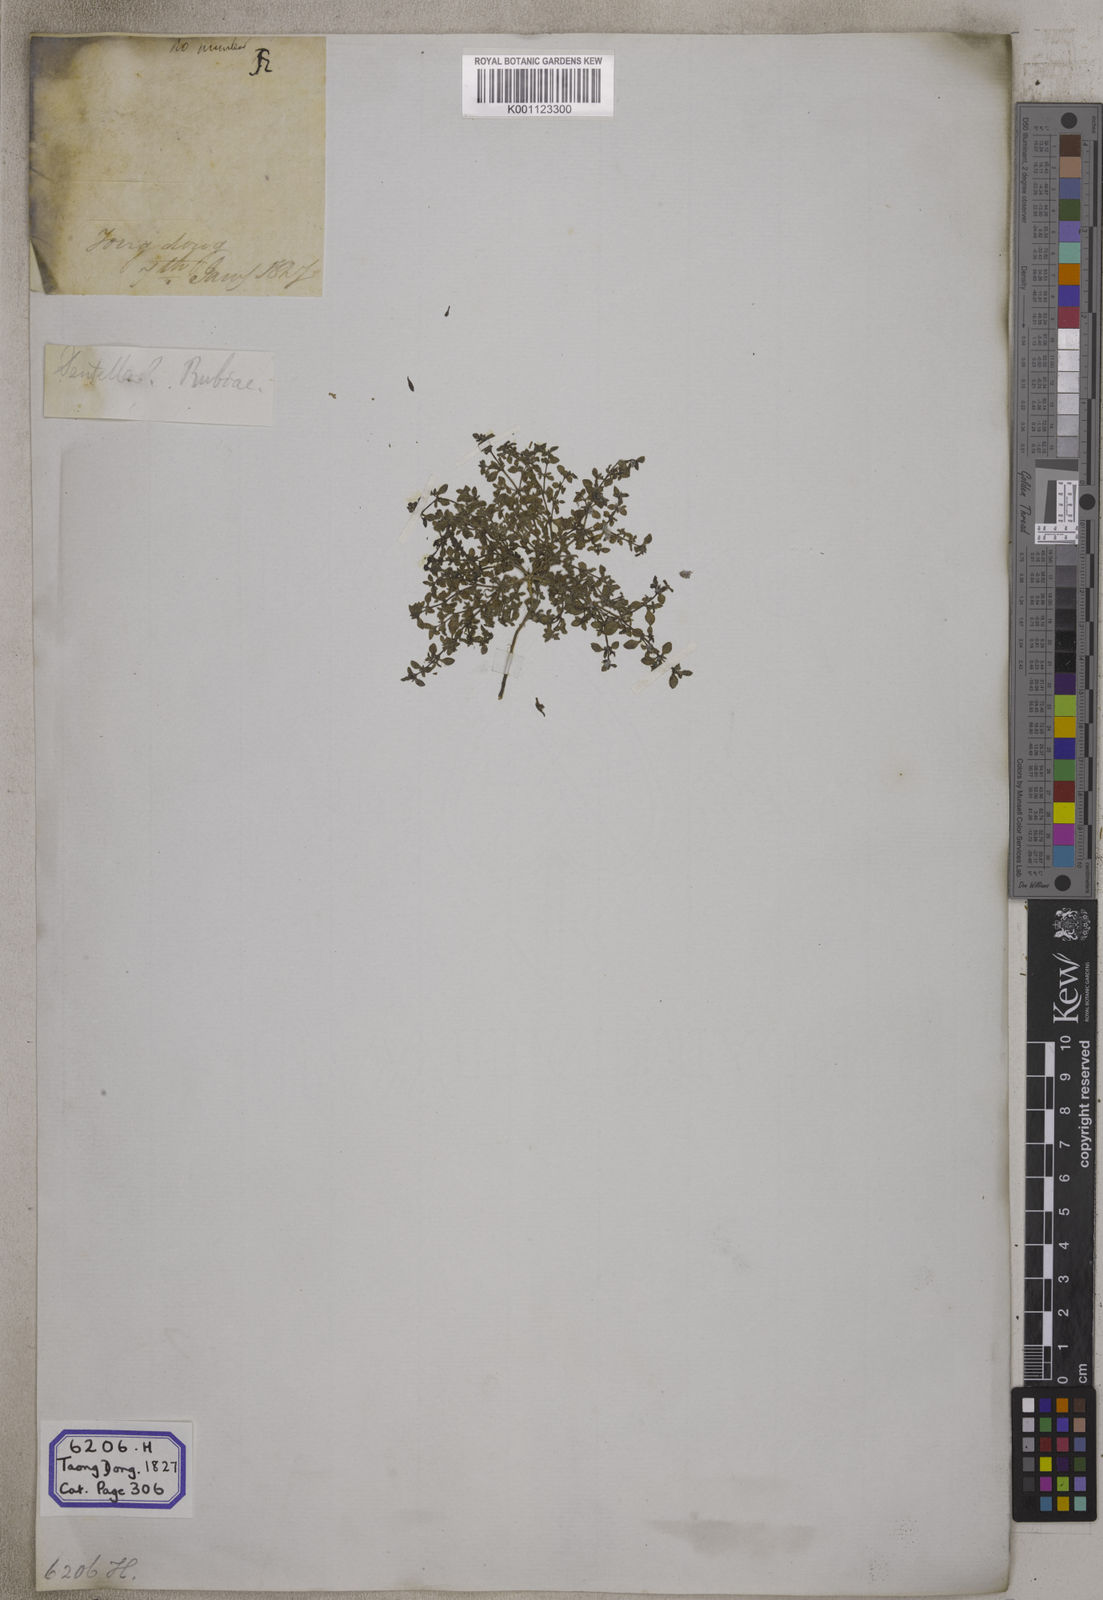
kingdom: Plantae
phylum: Tracheophyta
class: Magnoliopsida
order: Gentianales
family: Rubiaceae
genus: Dentella
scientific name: Dentella repens
